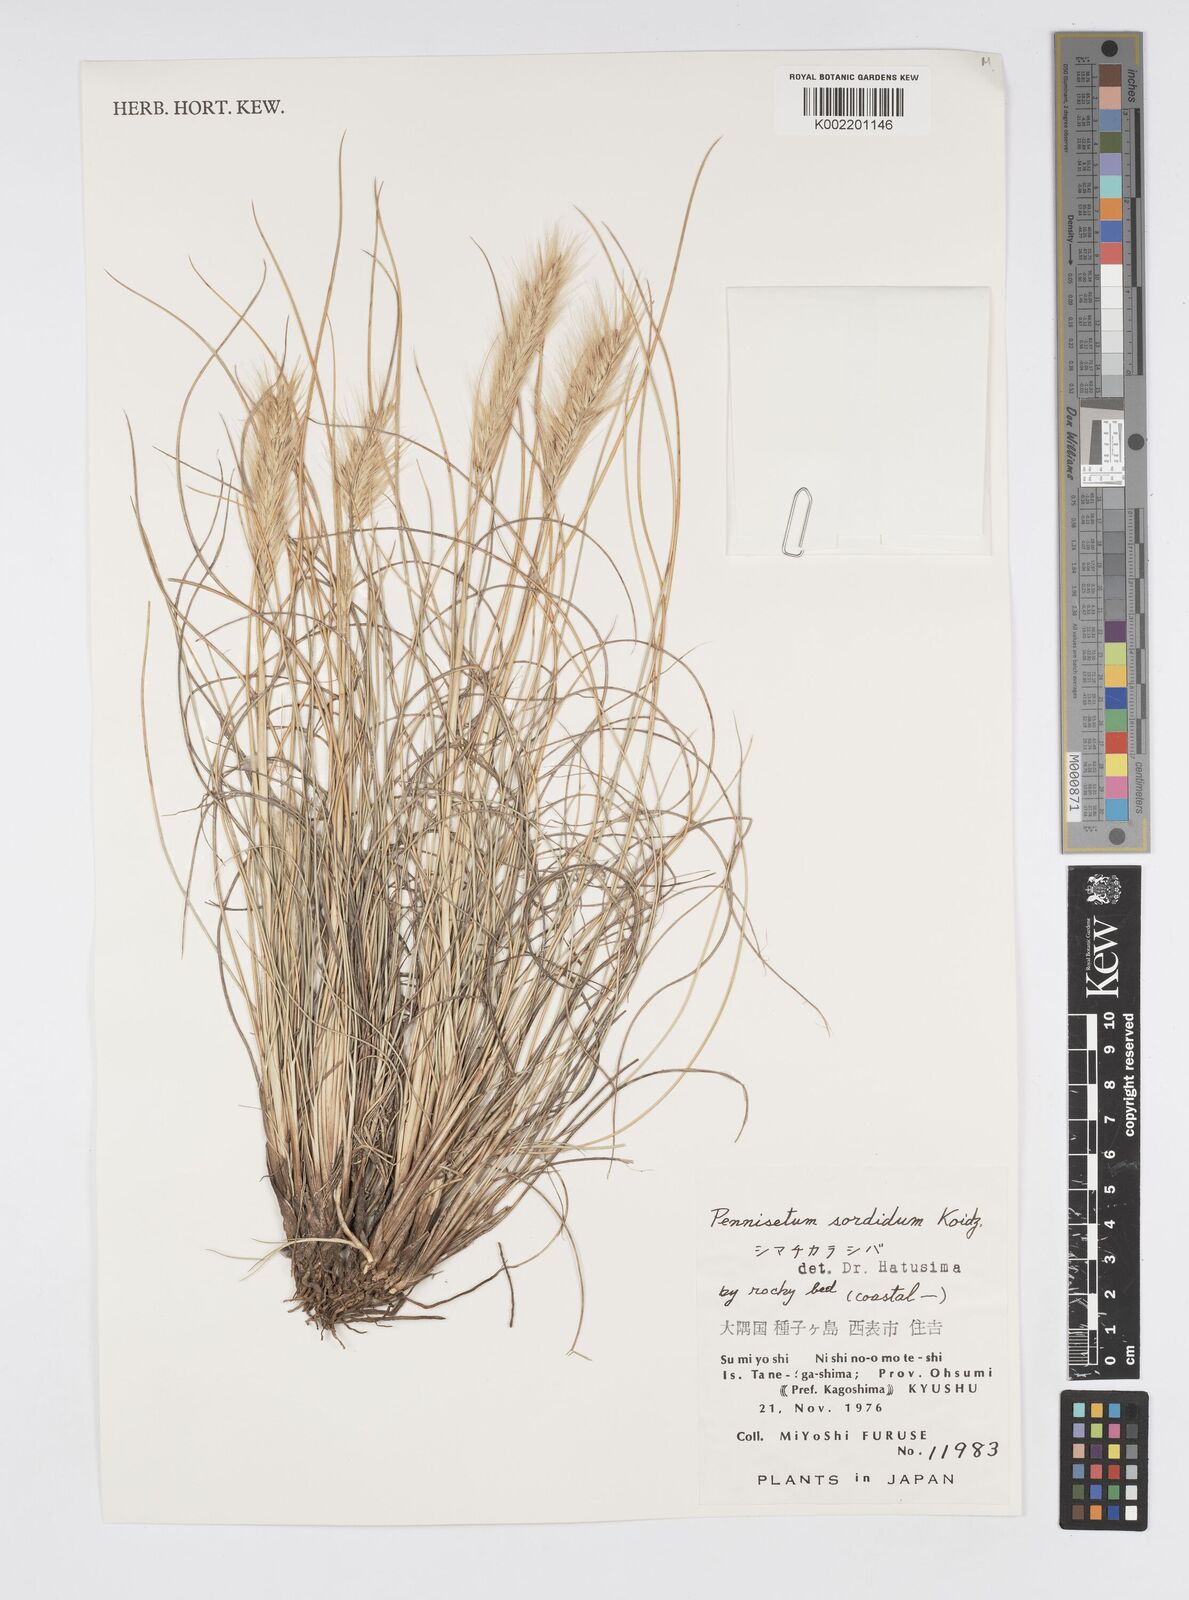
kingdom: Plantae
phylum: Tracheophyta
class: Liliopsida
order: Poales
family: Poaceae
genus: Cenchrus
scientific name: Cenchrus alopecuroides
